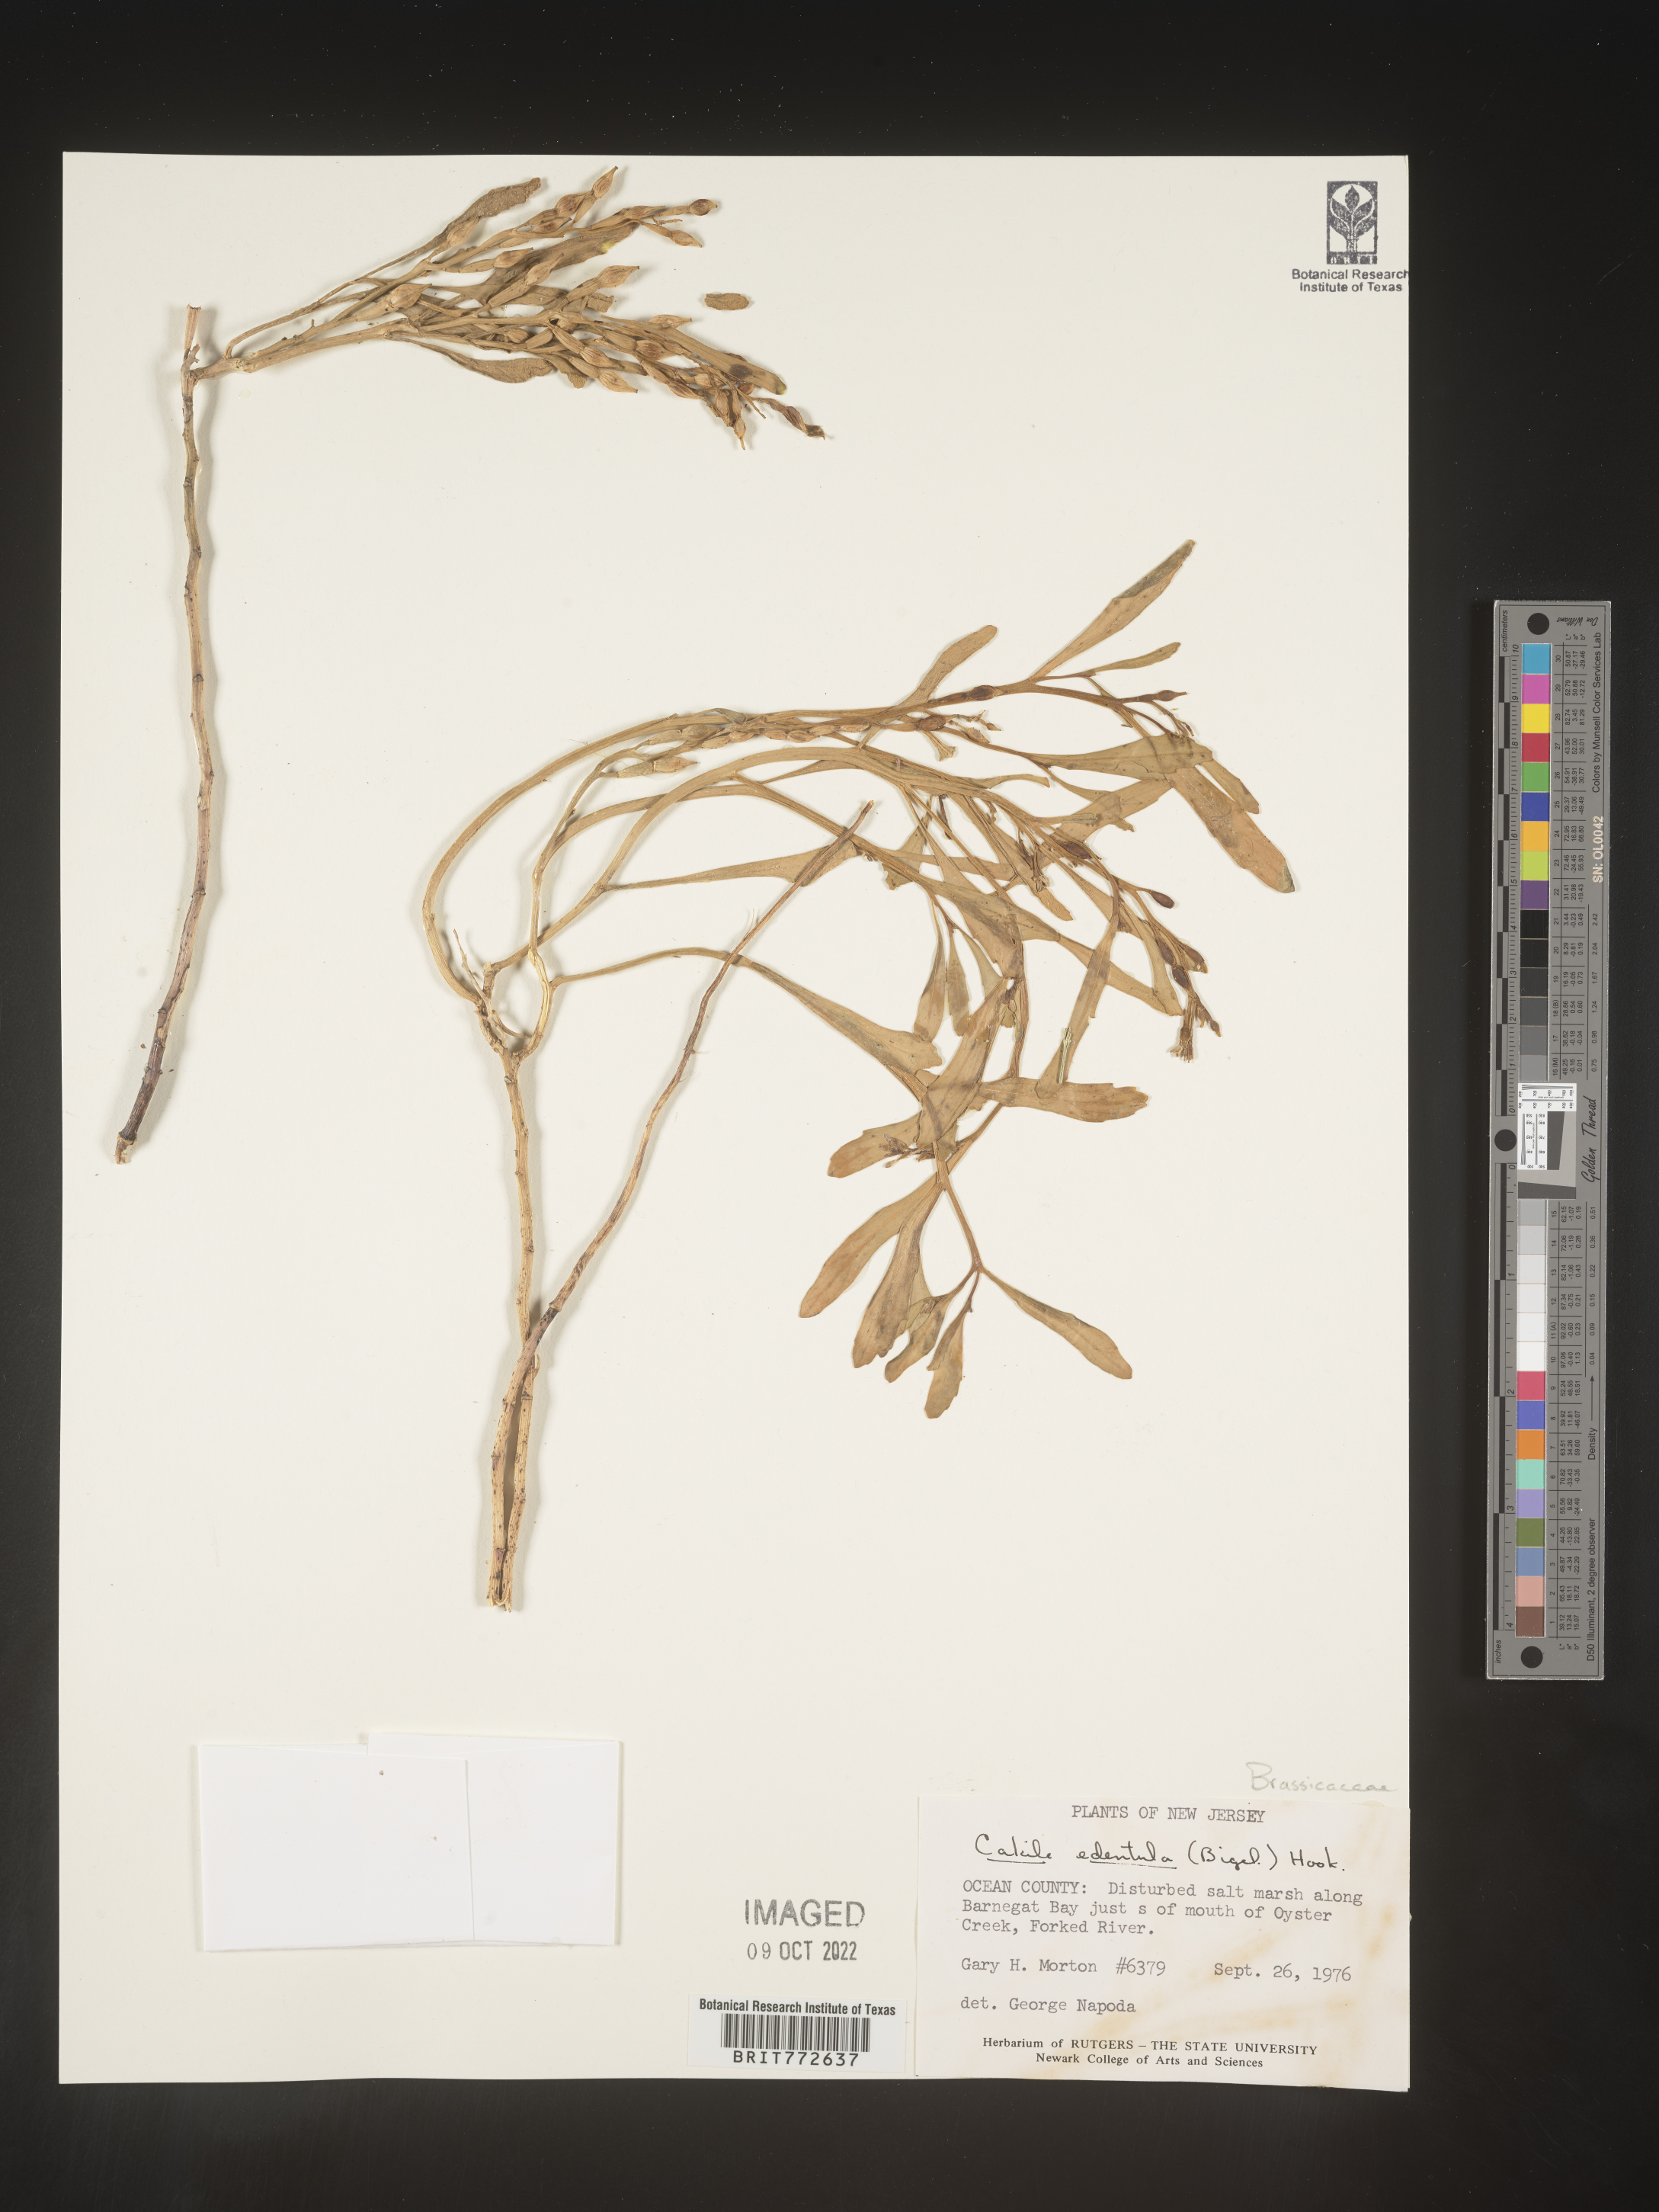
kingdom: Plantae
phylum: Tracheophyta
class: Magnoliopsida
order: Brassicales
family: Brassicaceae
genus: Cakile
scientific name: Cakile edentula
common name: American sea rocket
